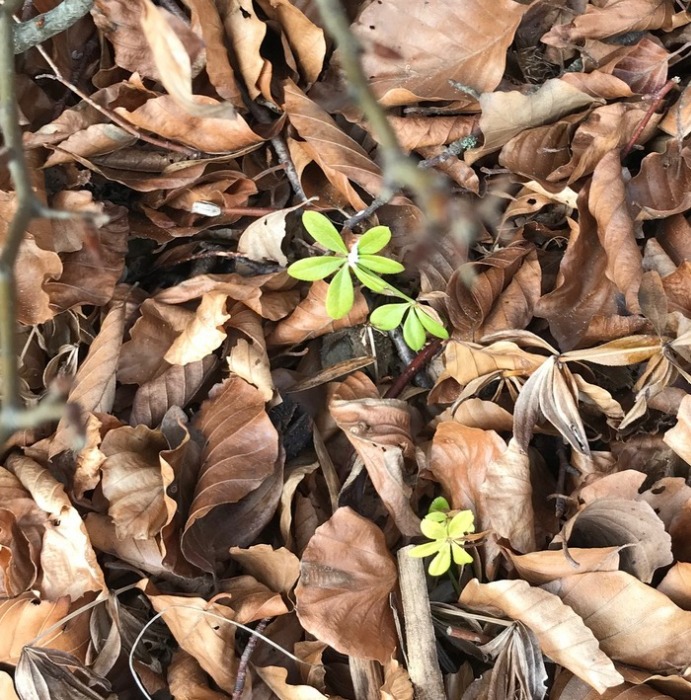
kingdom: Plantae
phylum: Tracheophyta
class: Magnoliopsida
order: Gentianales
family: Rubiaceae
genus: Galium
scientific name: Galium odoratum
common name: Skovmærke
